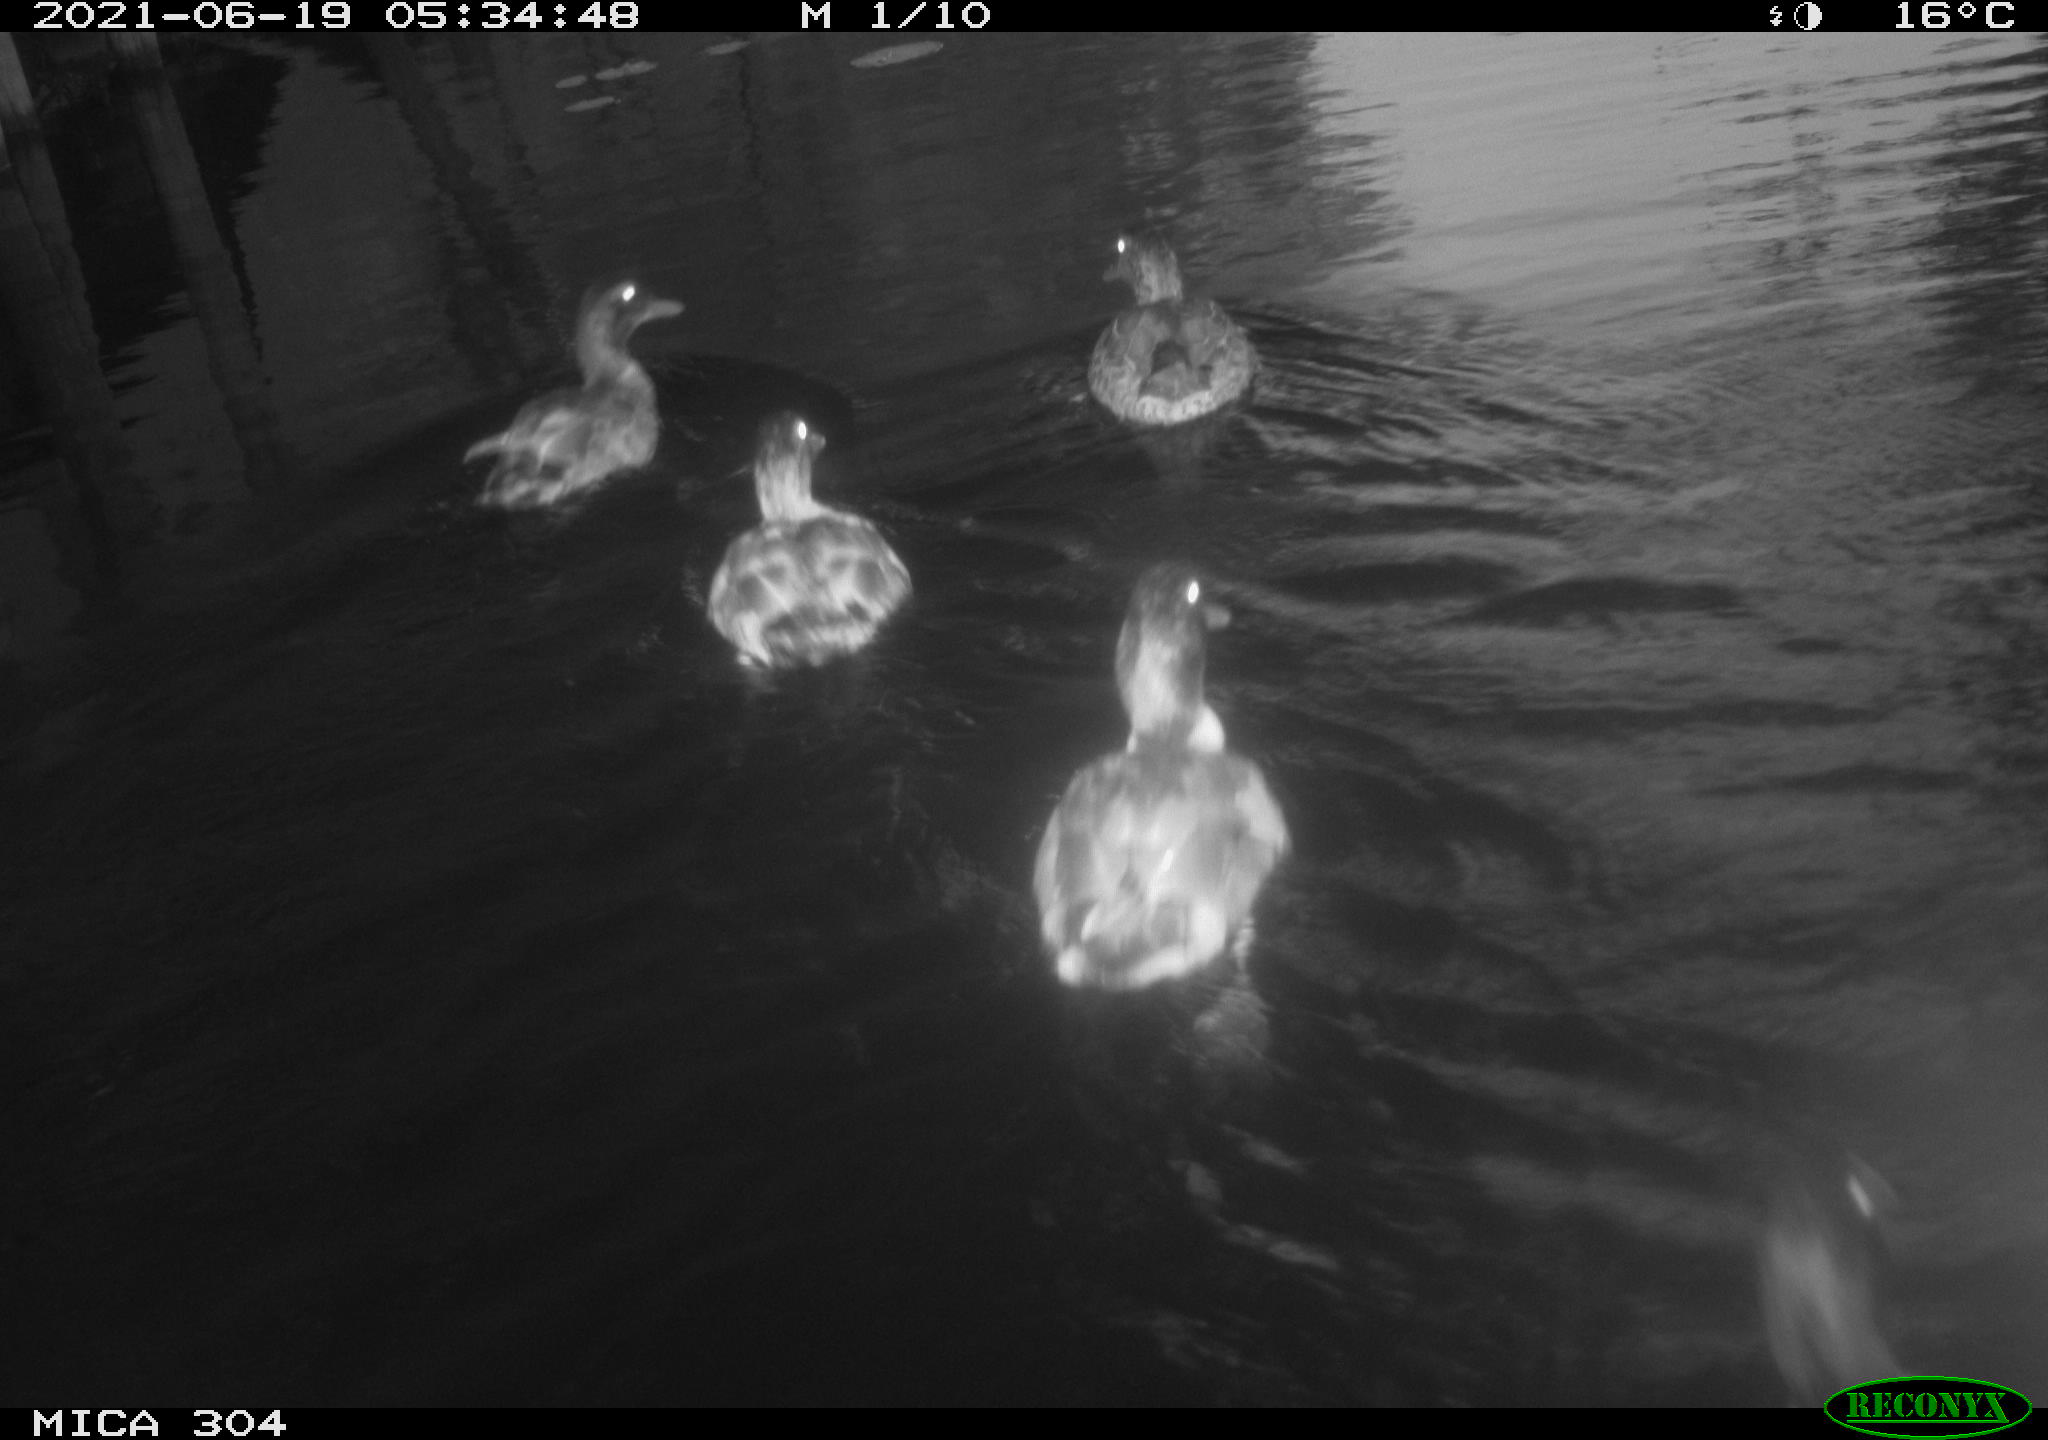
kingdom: Animalia
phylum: Chordata
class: Aves
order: Anseriformes
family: Anatidae
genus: Anas
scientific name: Anas platyrhynchos
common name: Mallard
